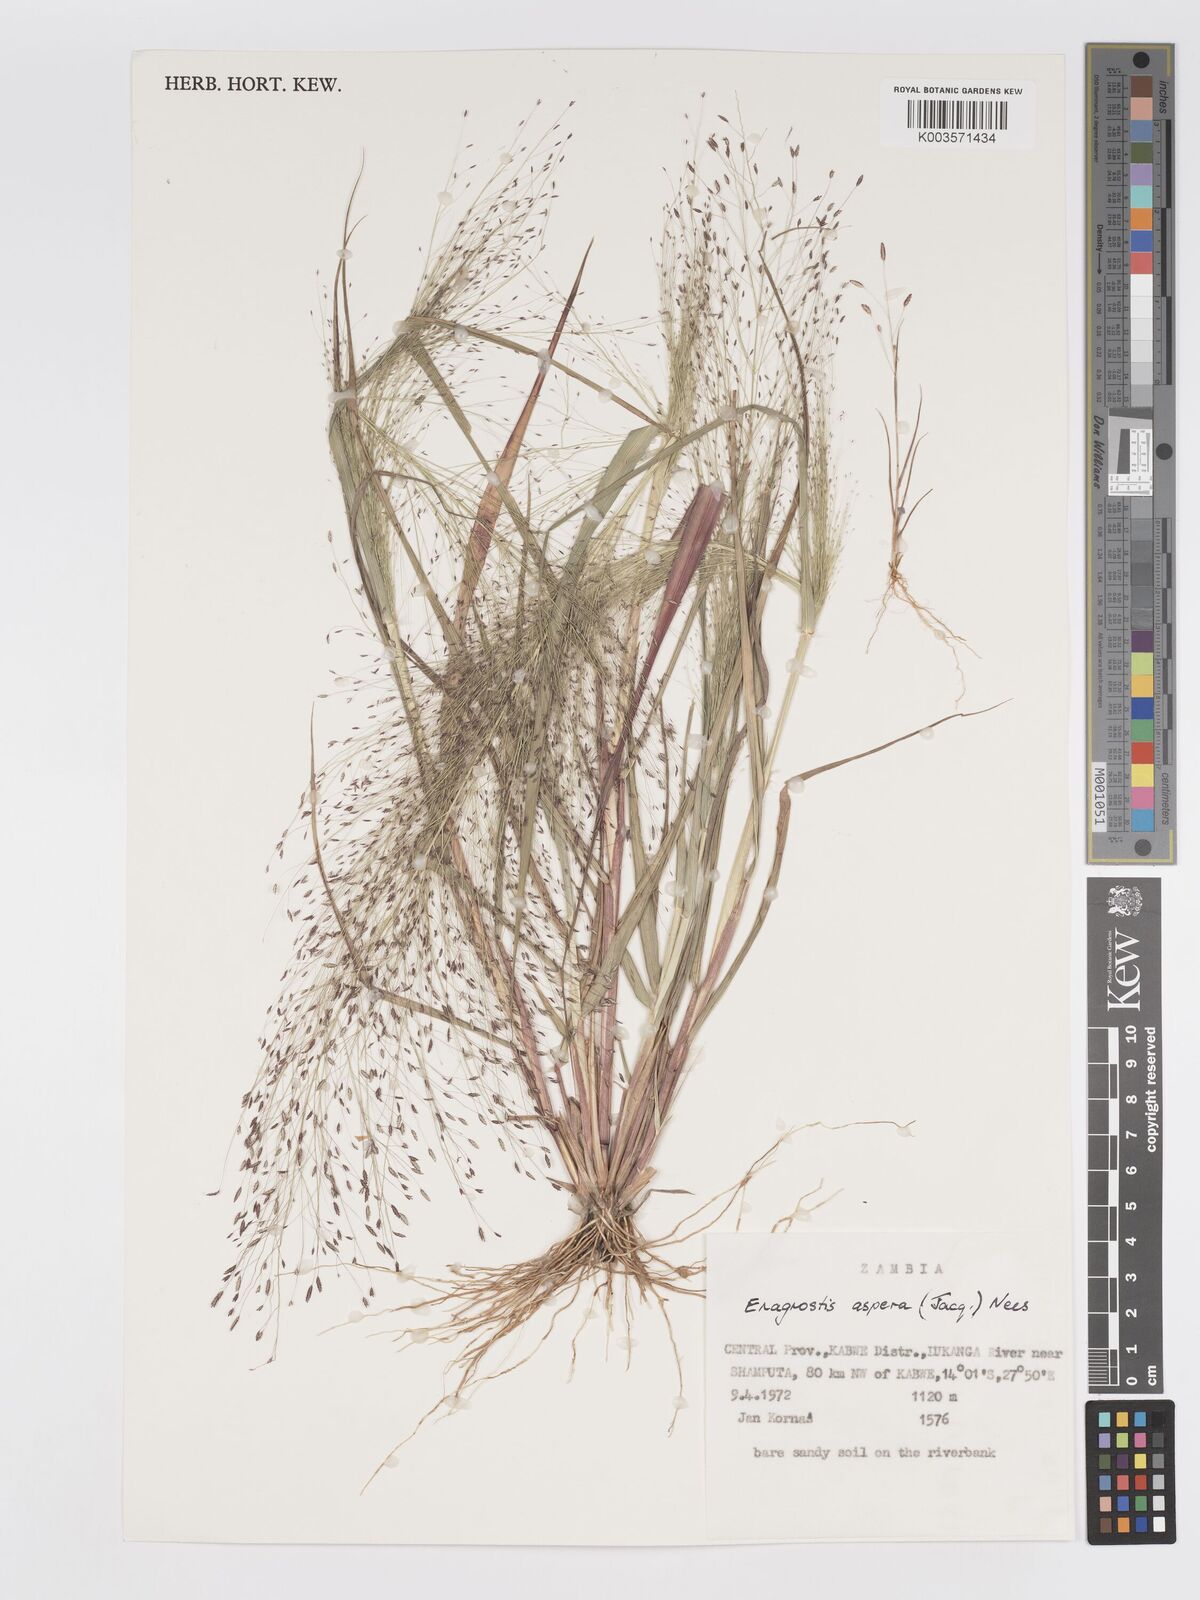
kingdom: Plantae
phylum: Tracheophyta
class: Liliopsida
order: Poales
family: Poaceae
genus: Eragrostis
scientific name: Eragrostis aspera
